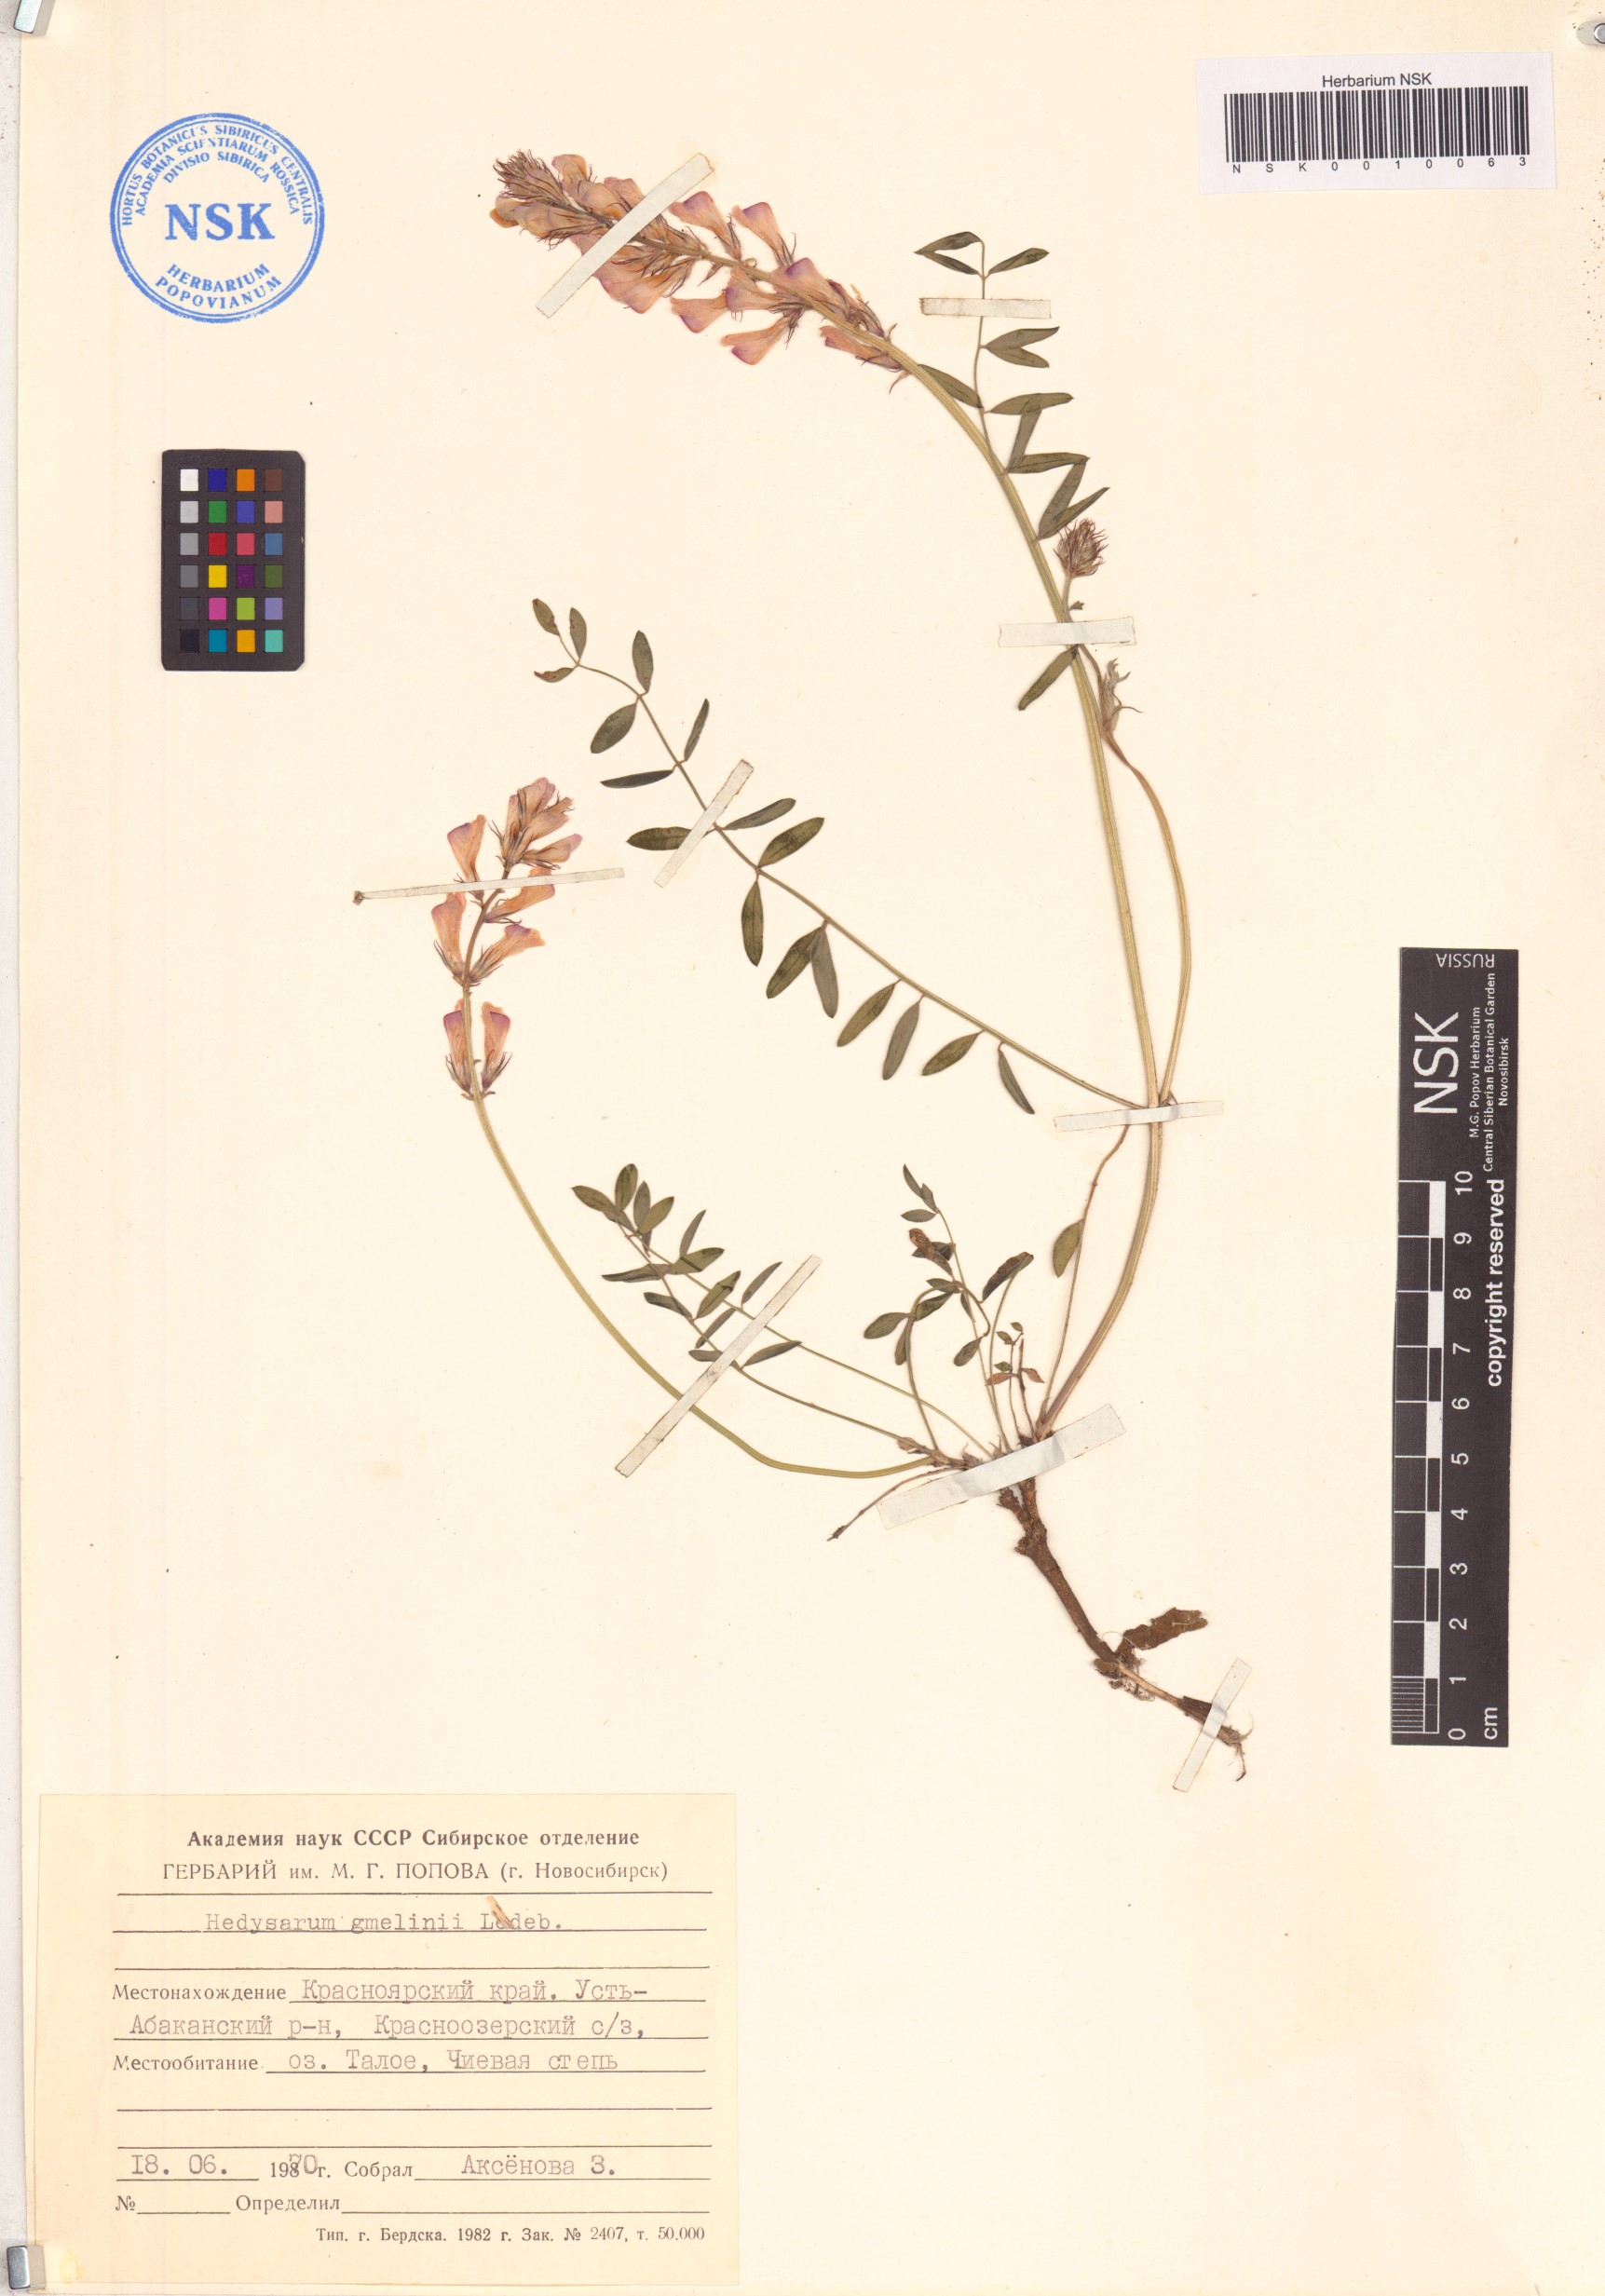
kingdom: Plantae
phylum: Tracheophyta
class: Magnoliopsida
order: Fabales
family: Fabaceae
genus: Hedysarum
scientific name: Hedysarum gmelinii
